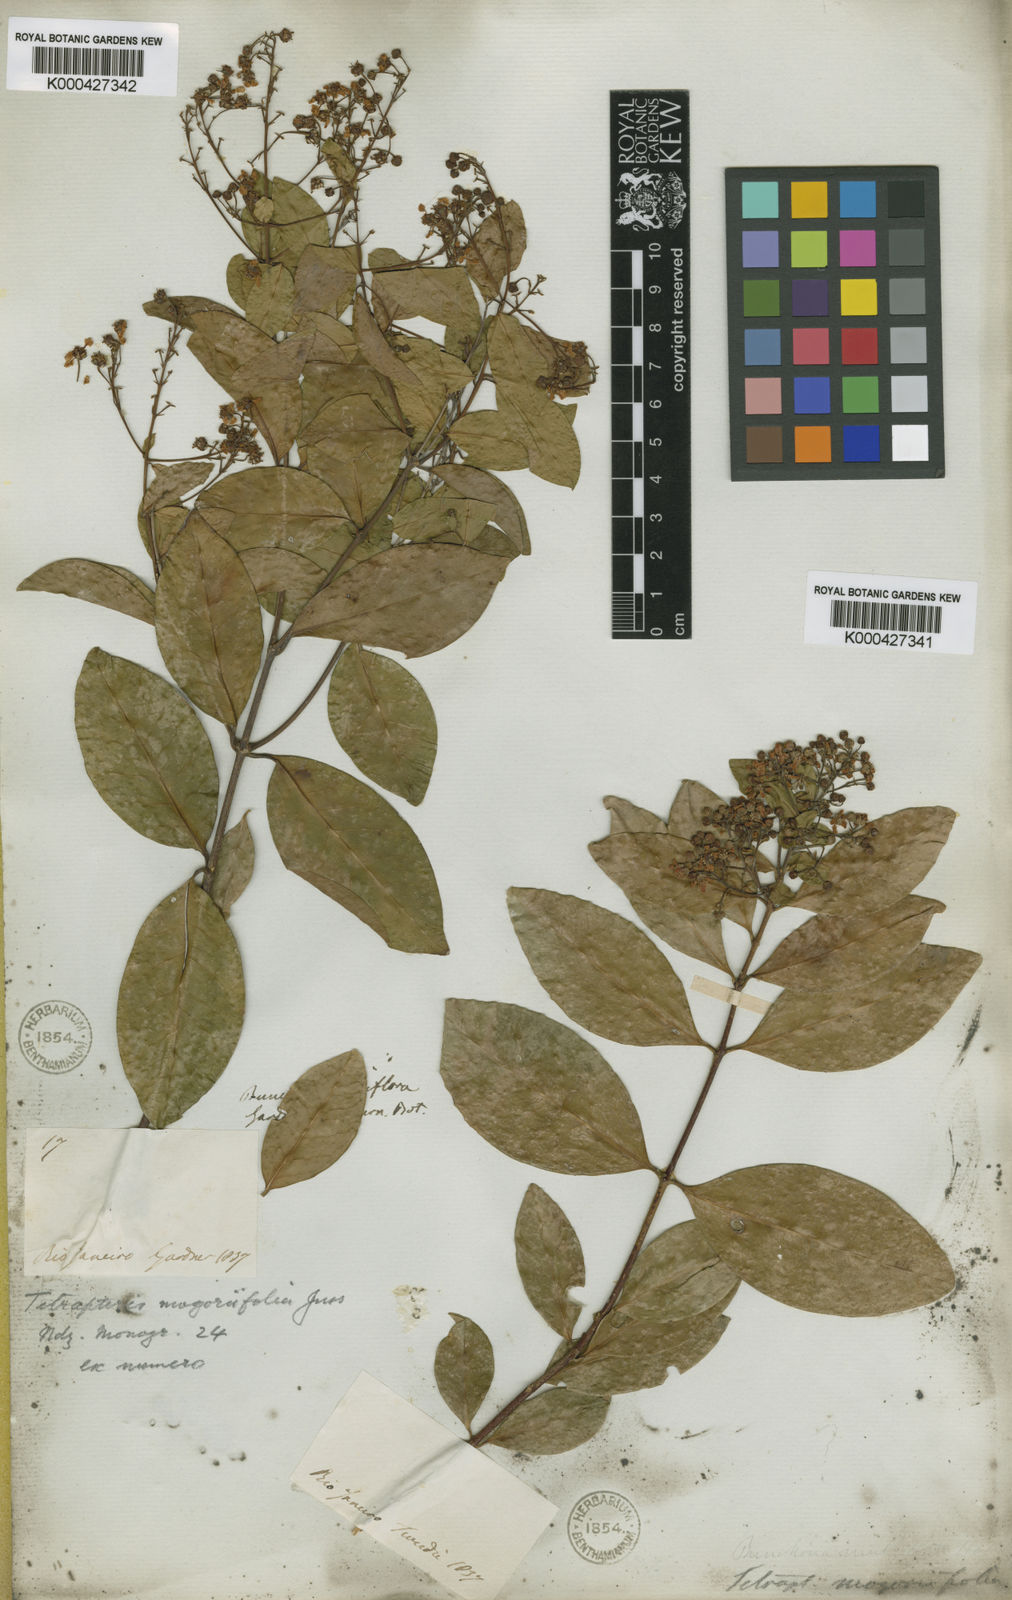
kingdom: Plantae
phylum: Tracheophyta
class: Magnoliopsida
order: Malpighiales
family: Malpighiaceae
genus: Niedenzuella
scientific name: Niedenzuella mogoriifolia
